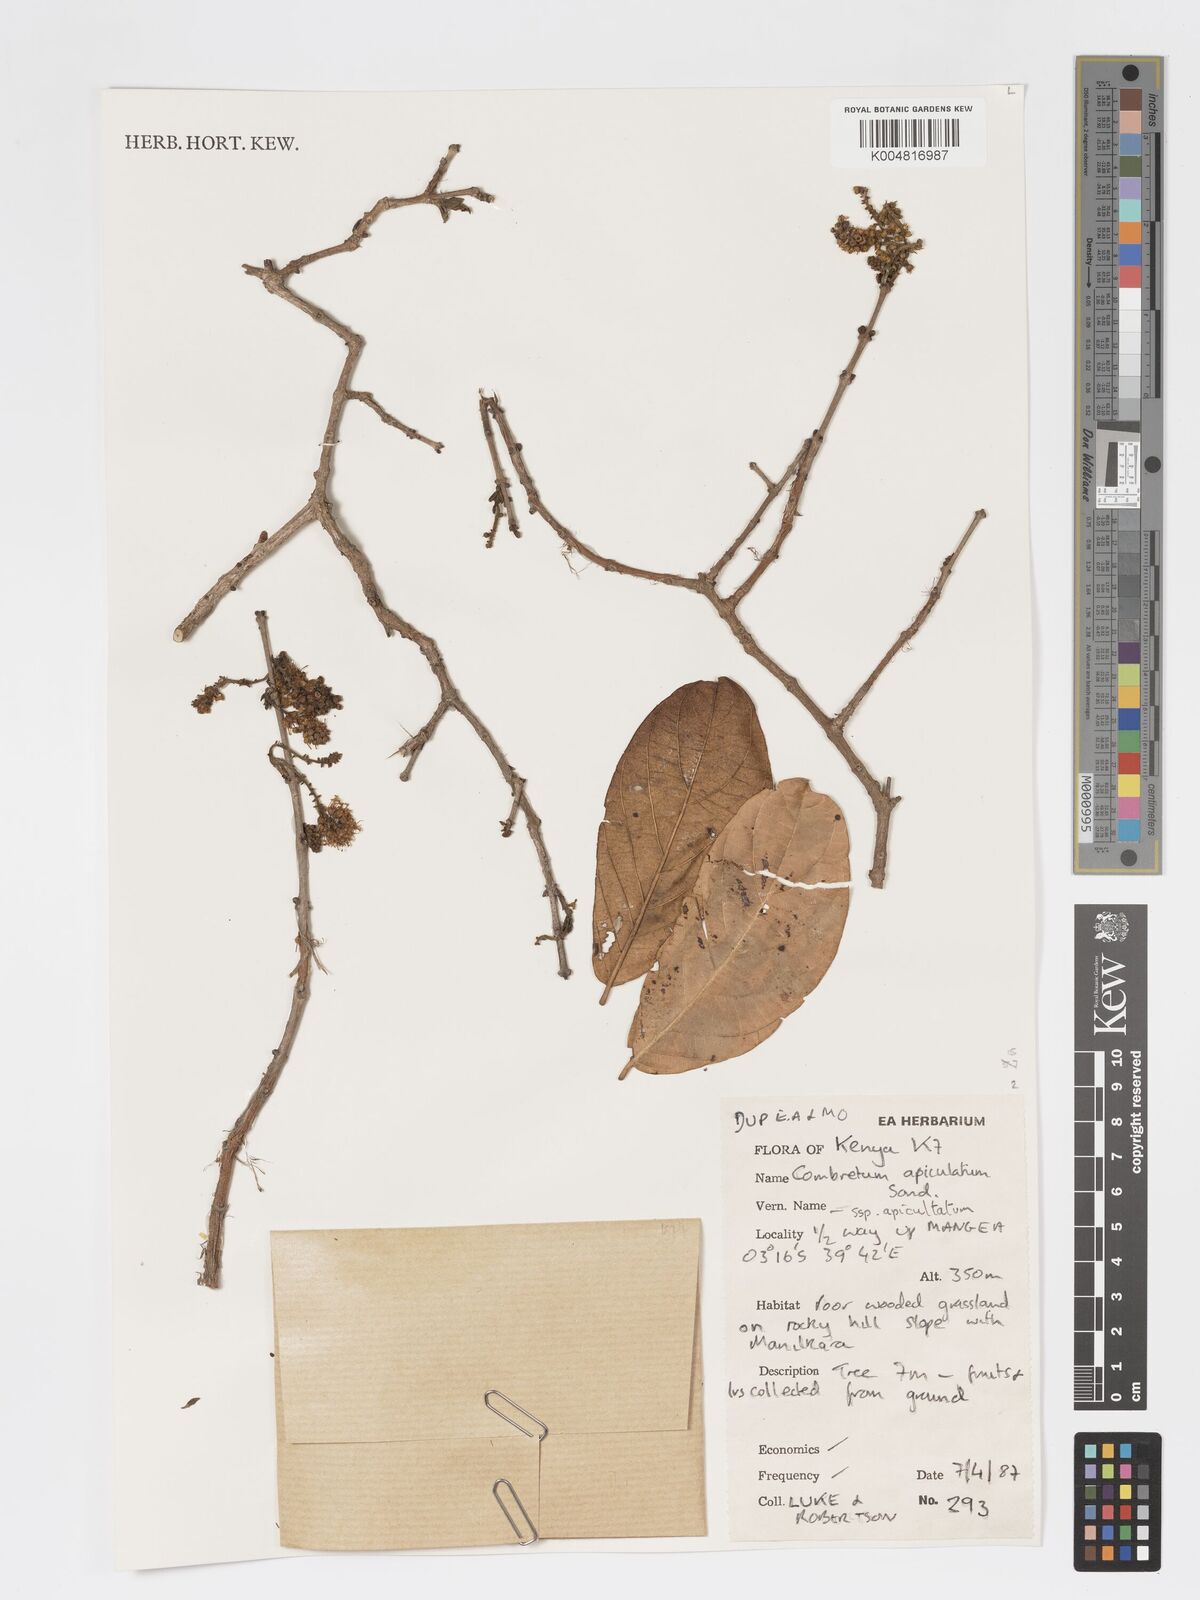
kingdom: Plantae
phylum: Tracheophyta
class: Magnoliopsida
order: Myrtales
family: Combretaceae
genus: Combretum
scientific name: Combretum apiculatum
